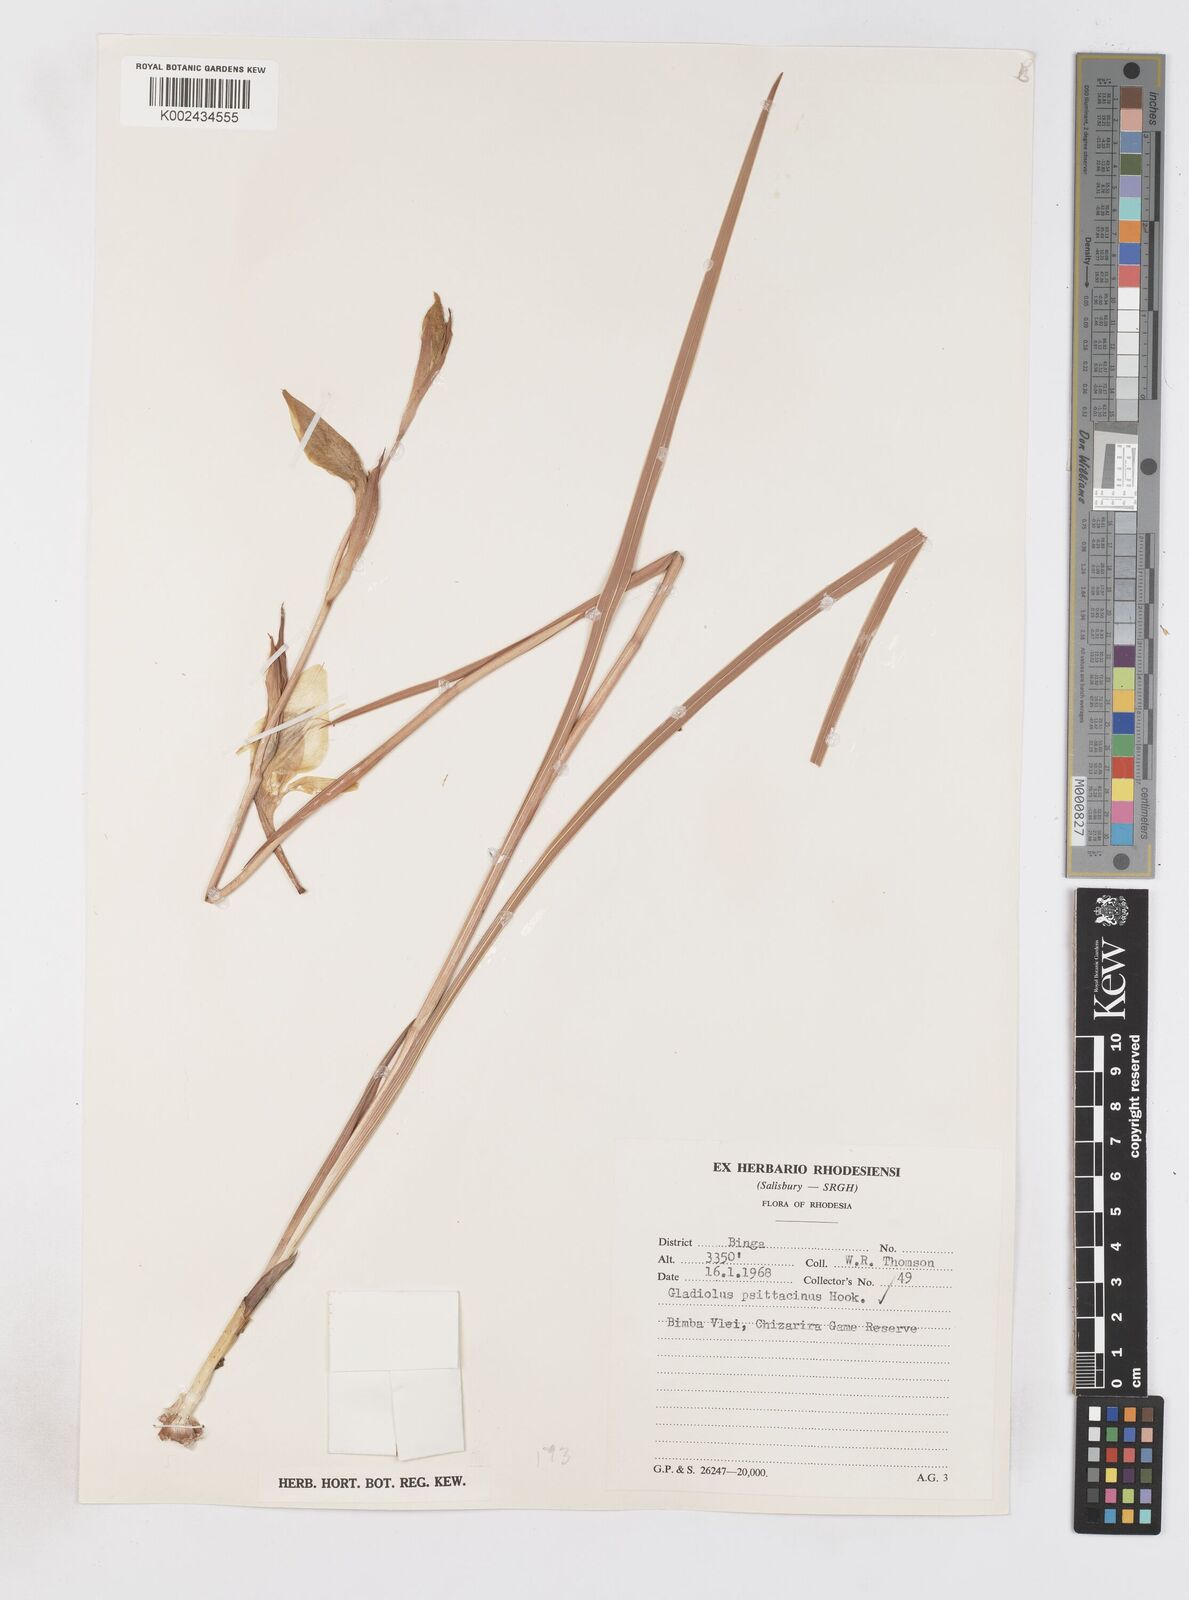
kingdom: Plantae
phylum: Tracheophyta
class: Liliopsida
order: Asparagales
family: Iridaceae
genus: Gladiolus
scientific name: Gladiolus dalenii
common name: Cornflag
